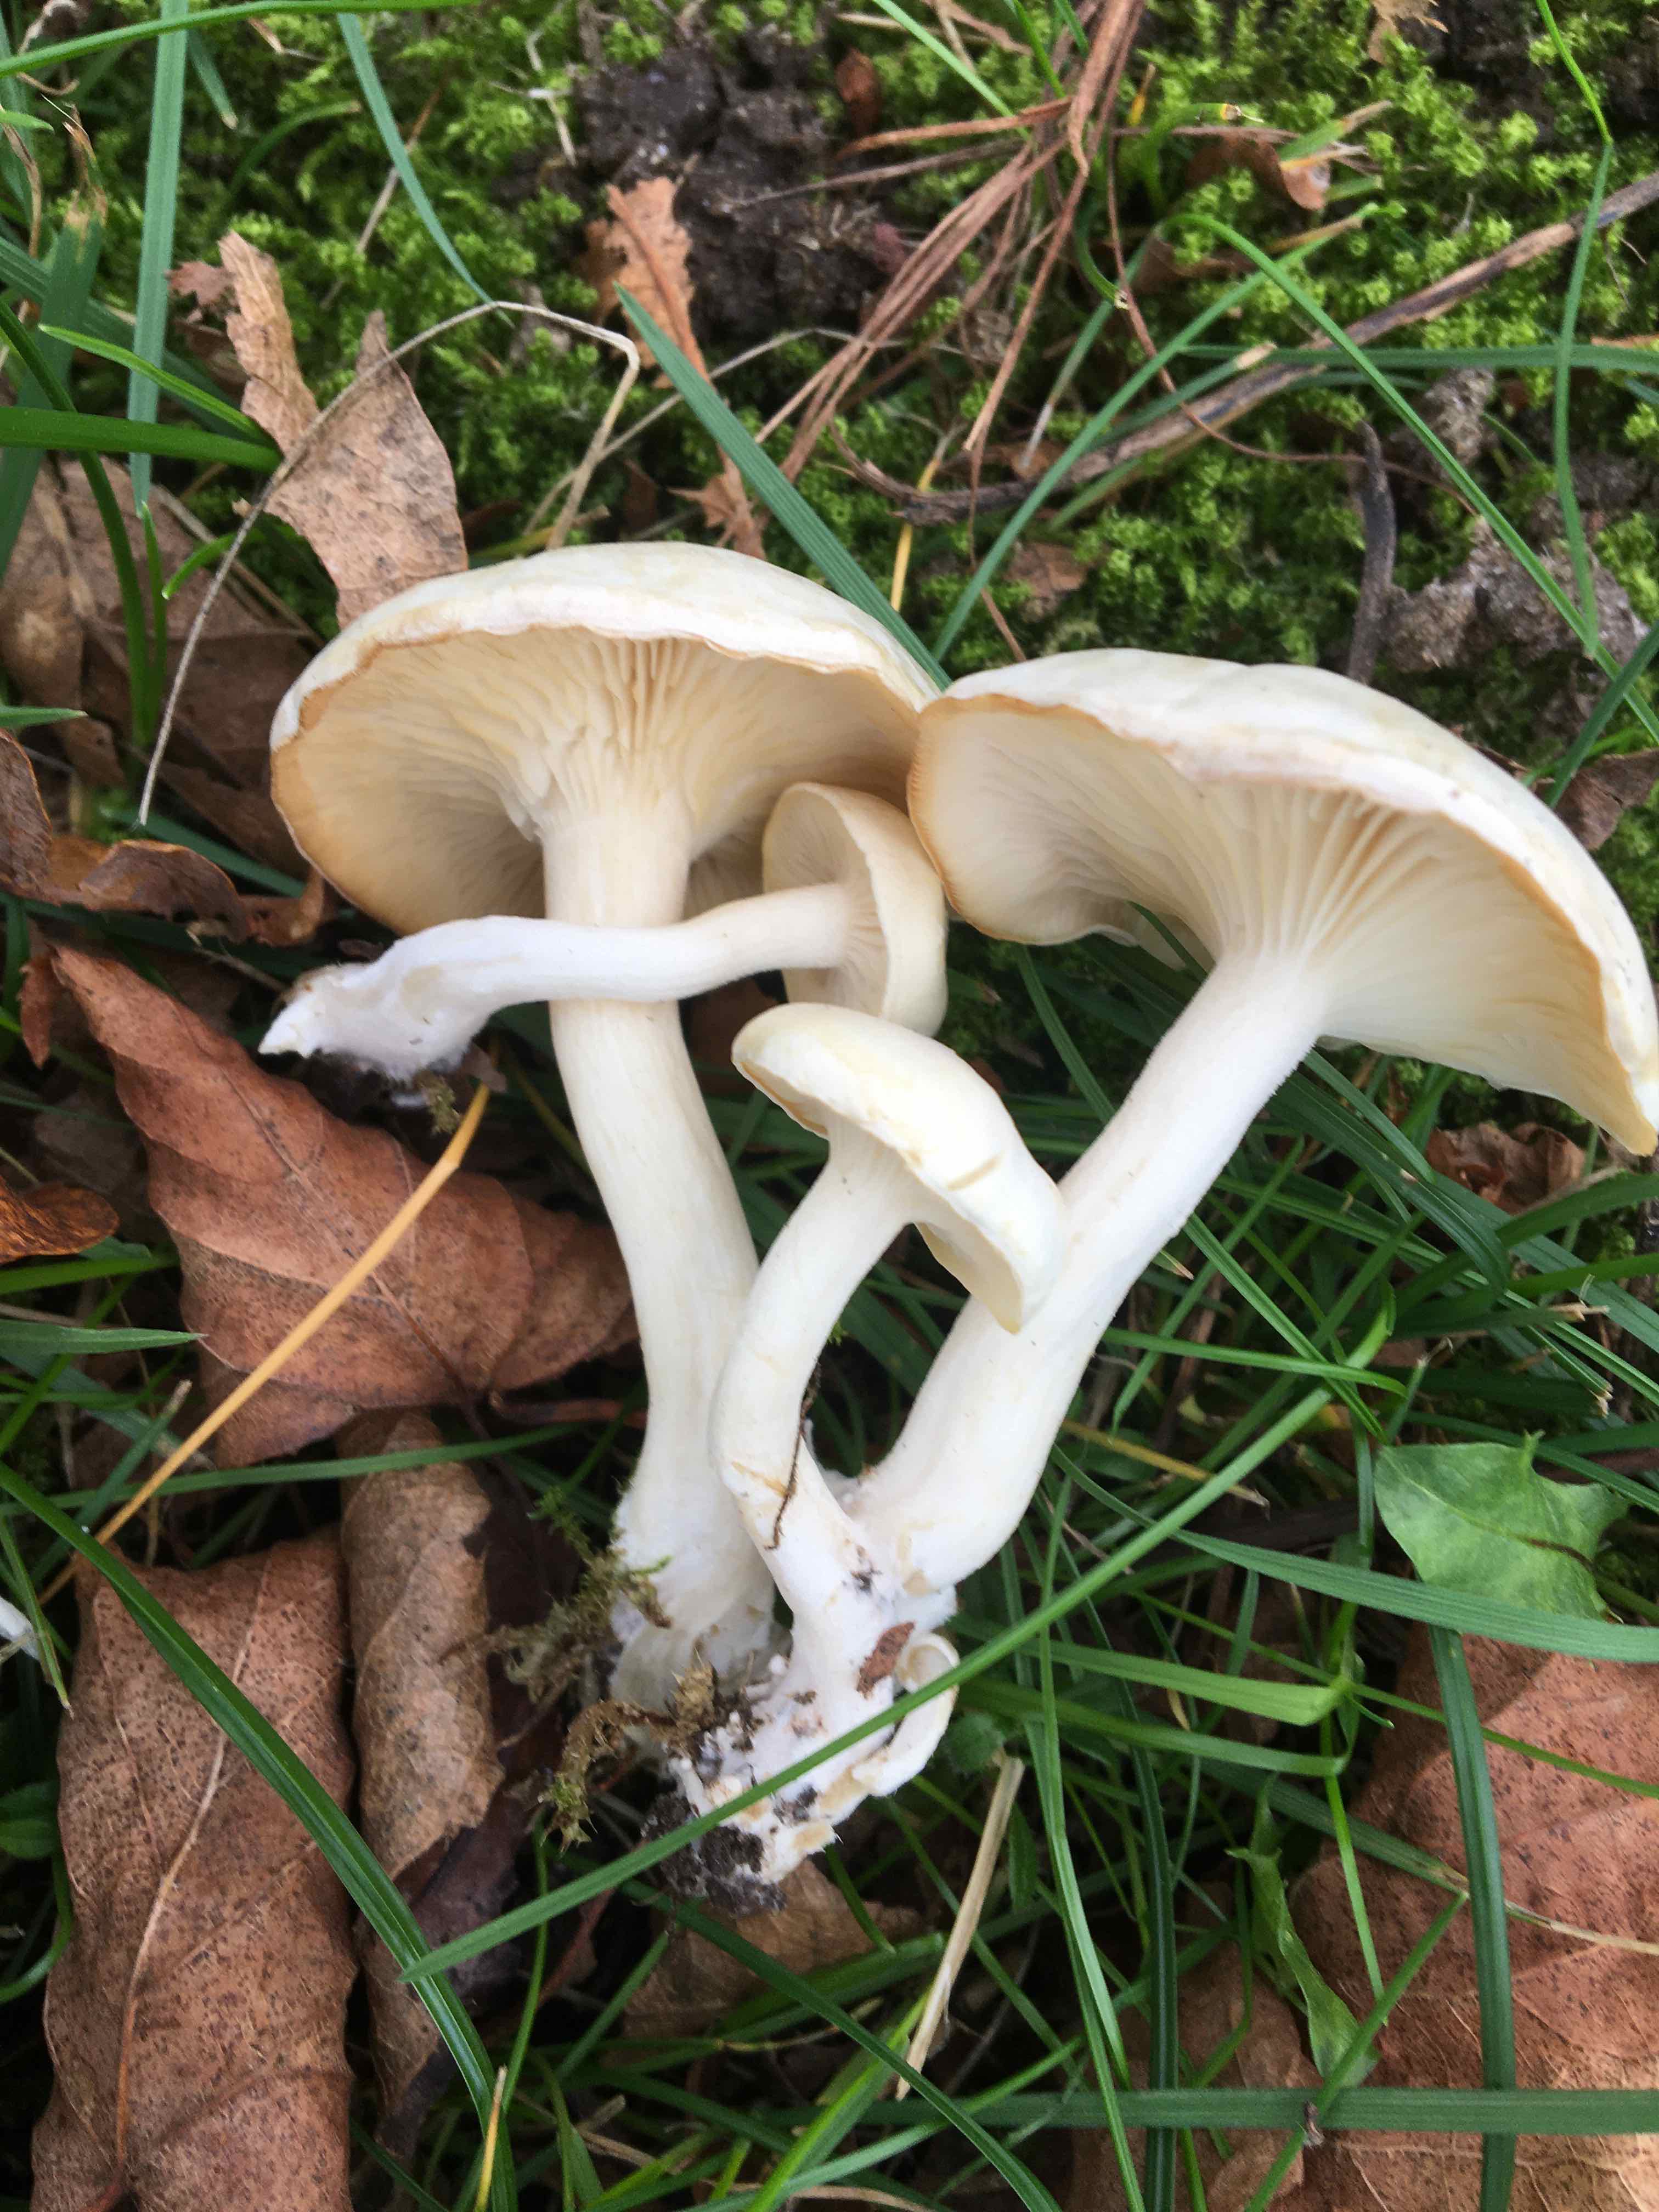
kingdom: Fungi
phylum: Basidiomycota
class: Agaricomycetes
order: Agaricales
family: Tricholomataceae
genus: Leucocybe
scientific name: Leucocybe connata
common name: knippe-tragthat
